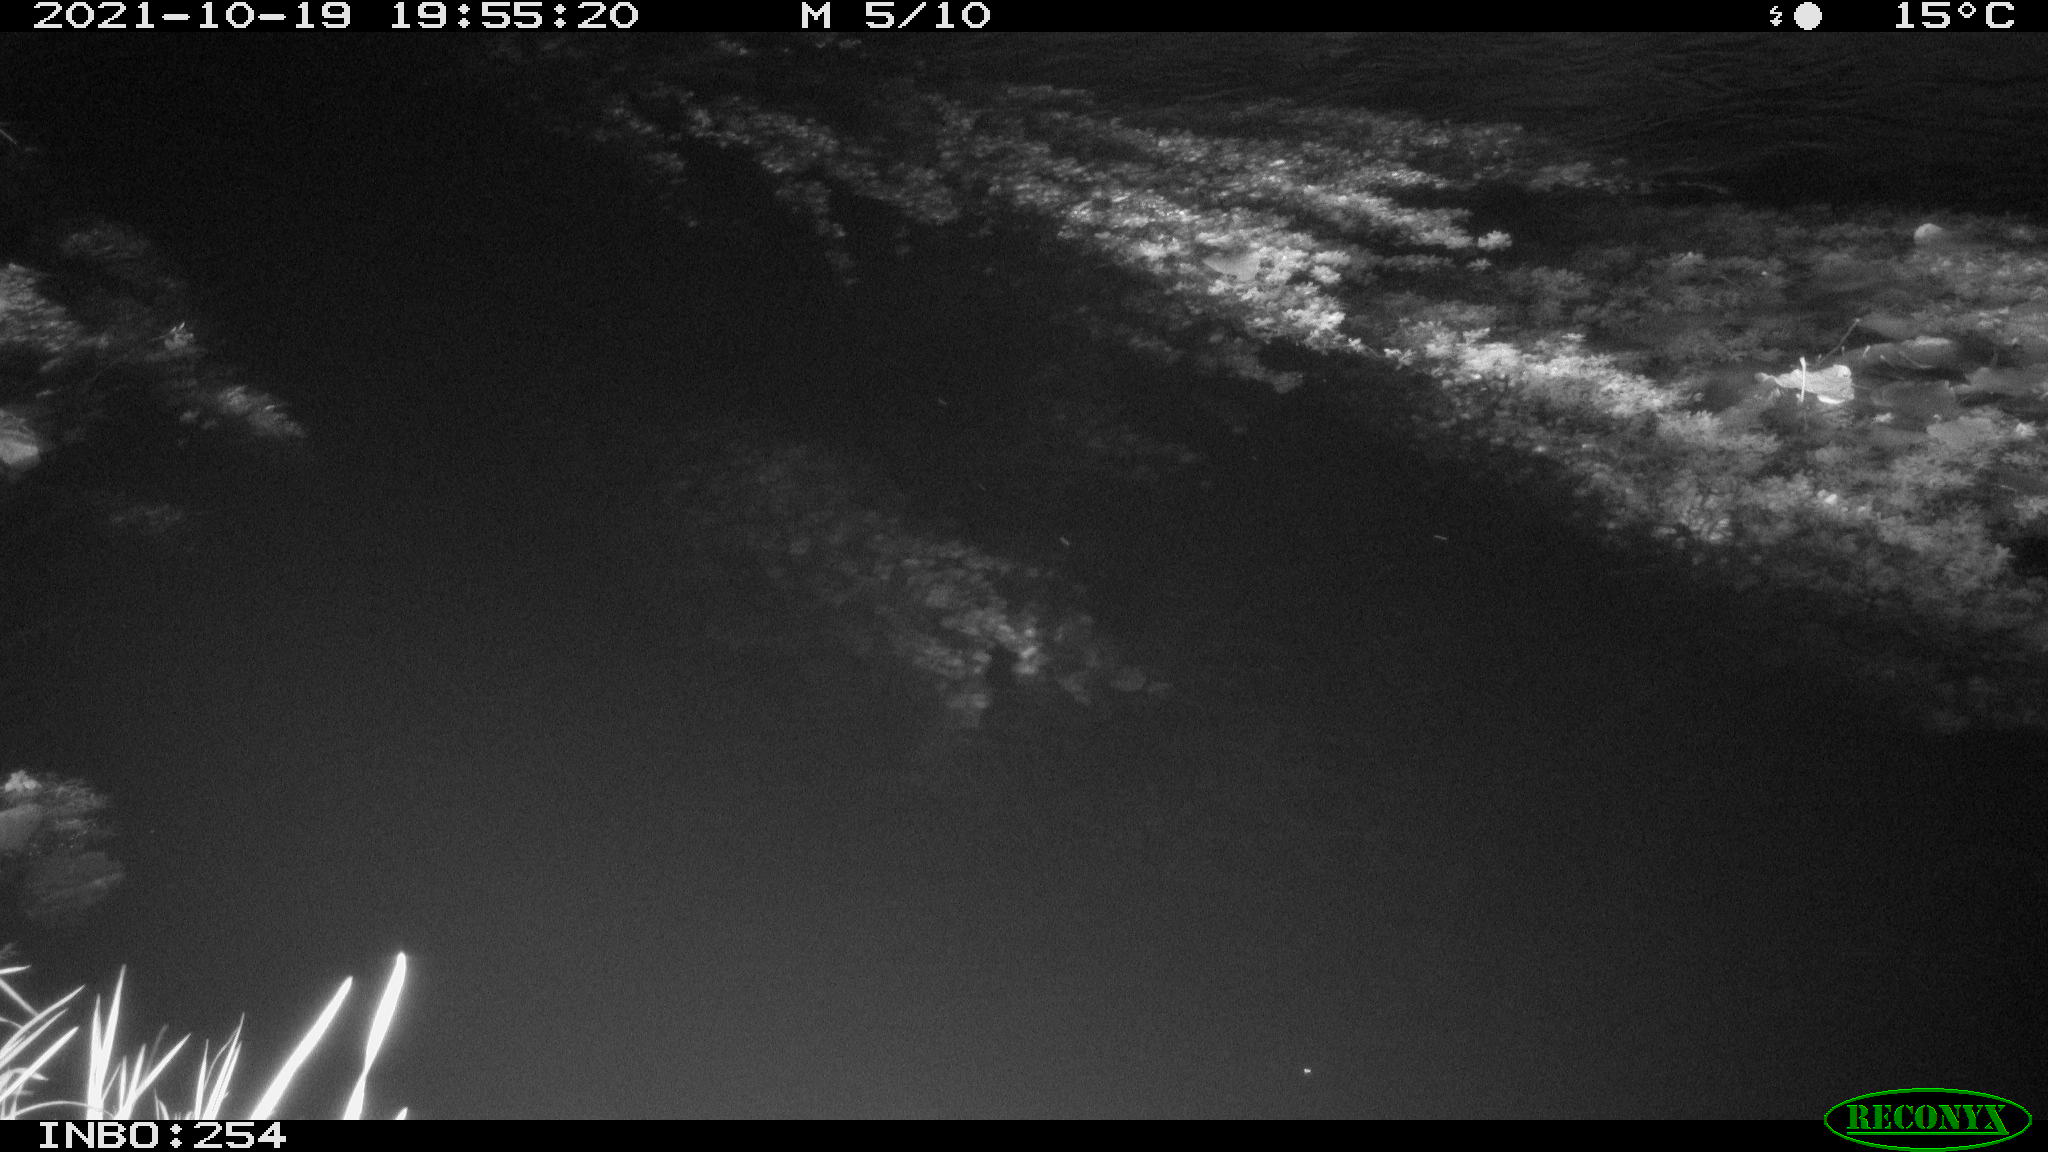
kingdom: Animalia
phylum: Chordata
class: Mammalia
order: Rodentia
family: Muridae
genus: Rattus
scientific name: Rattus norvegicus
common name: Brown rat
